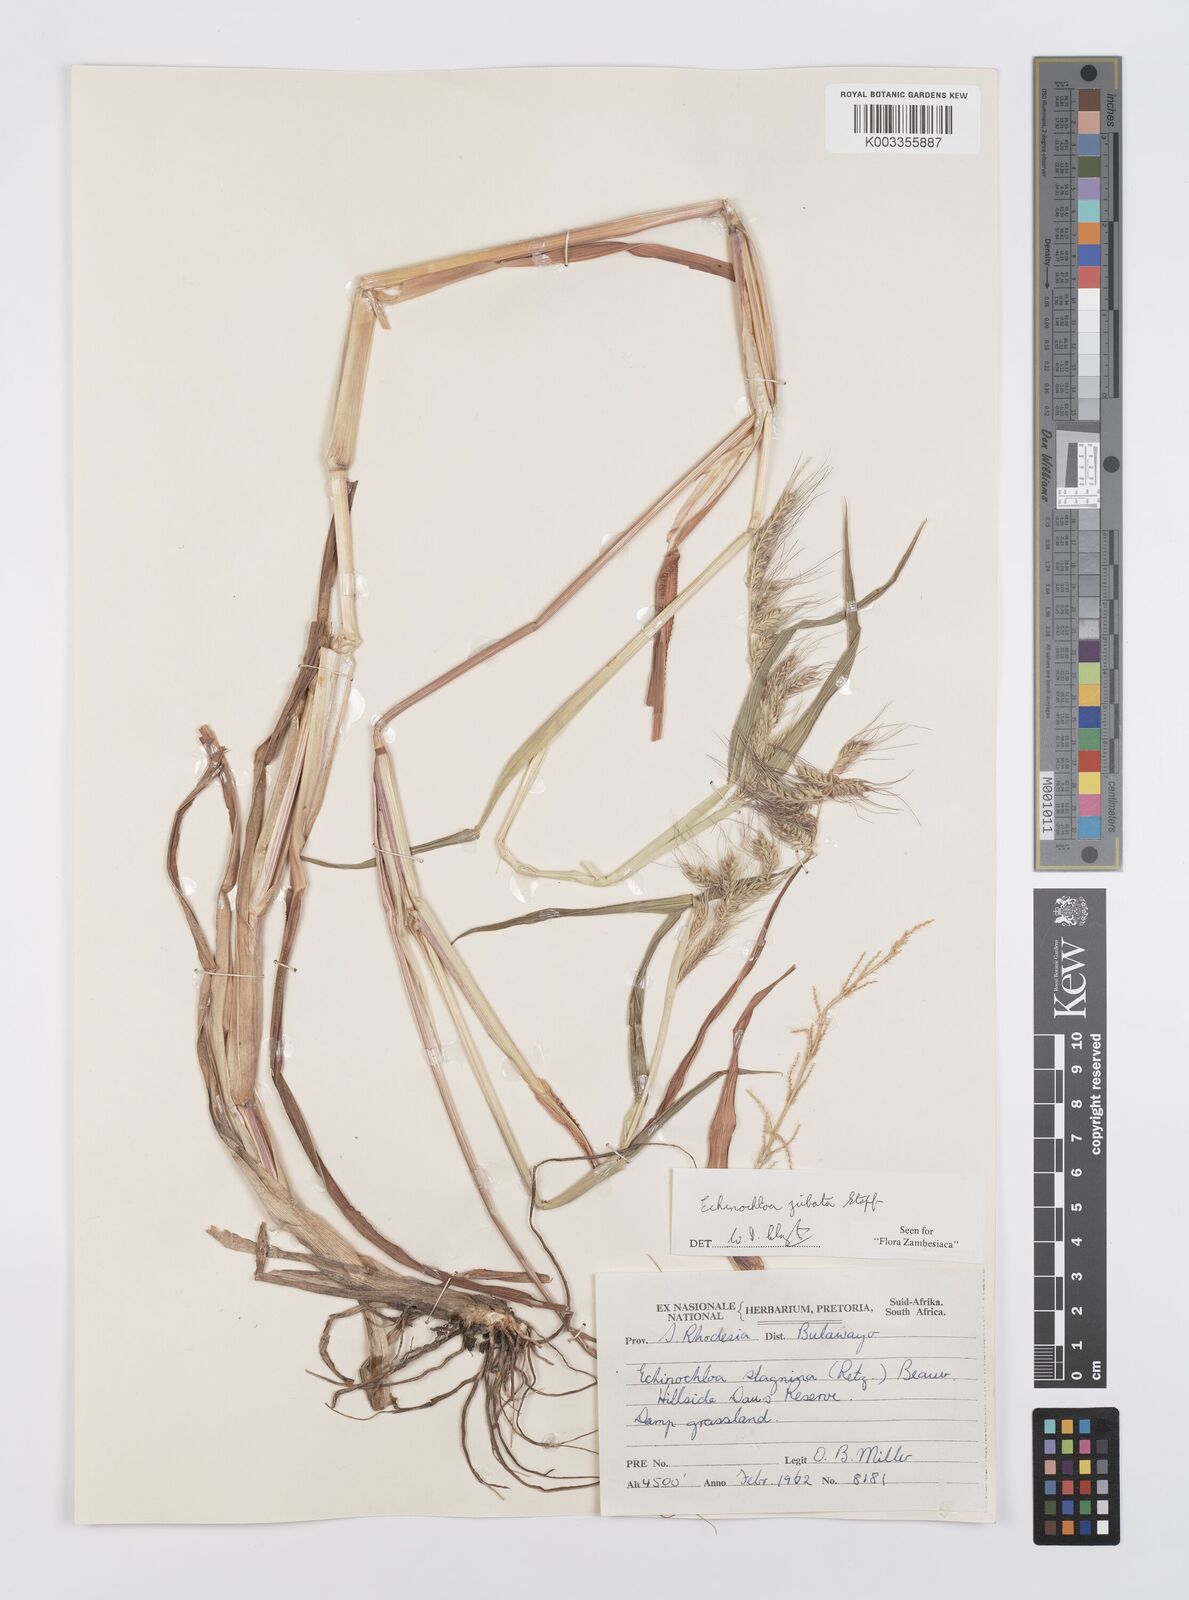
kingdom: Plantae
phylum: Tracheophyta
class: Liliopsida
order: Poales
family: Poaceae
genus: Echinochloa
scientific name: Echinochloa jubata
